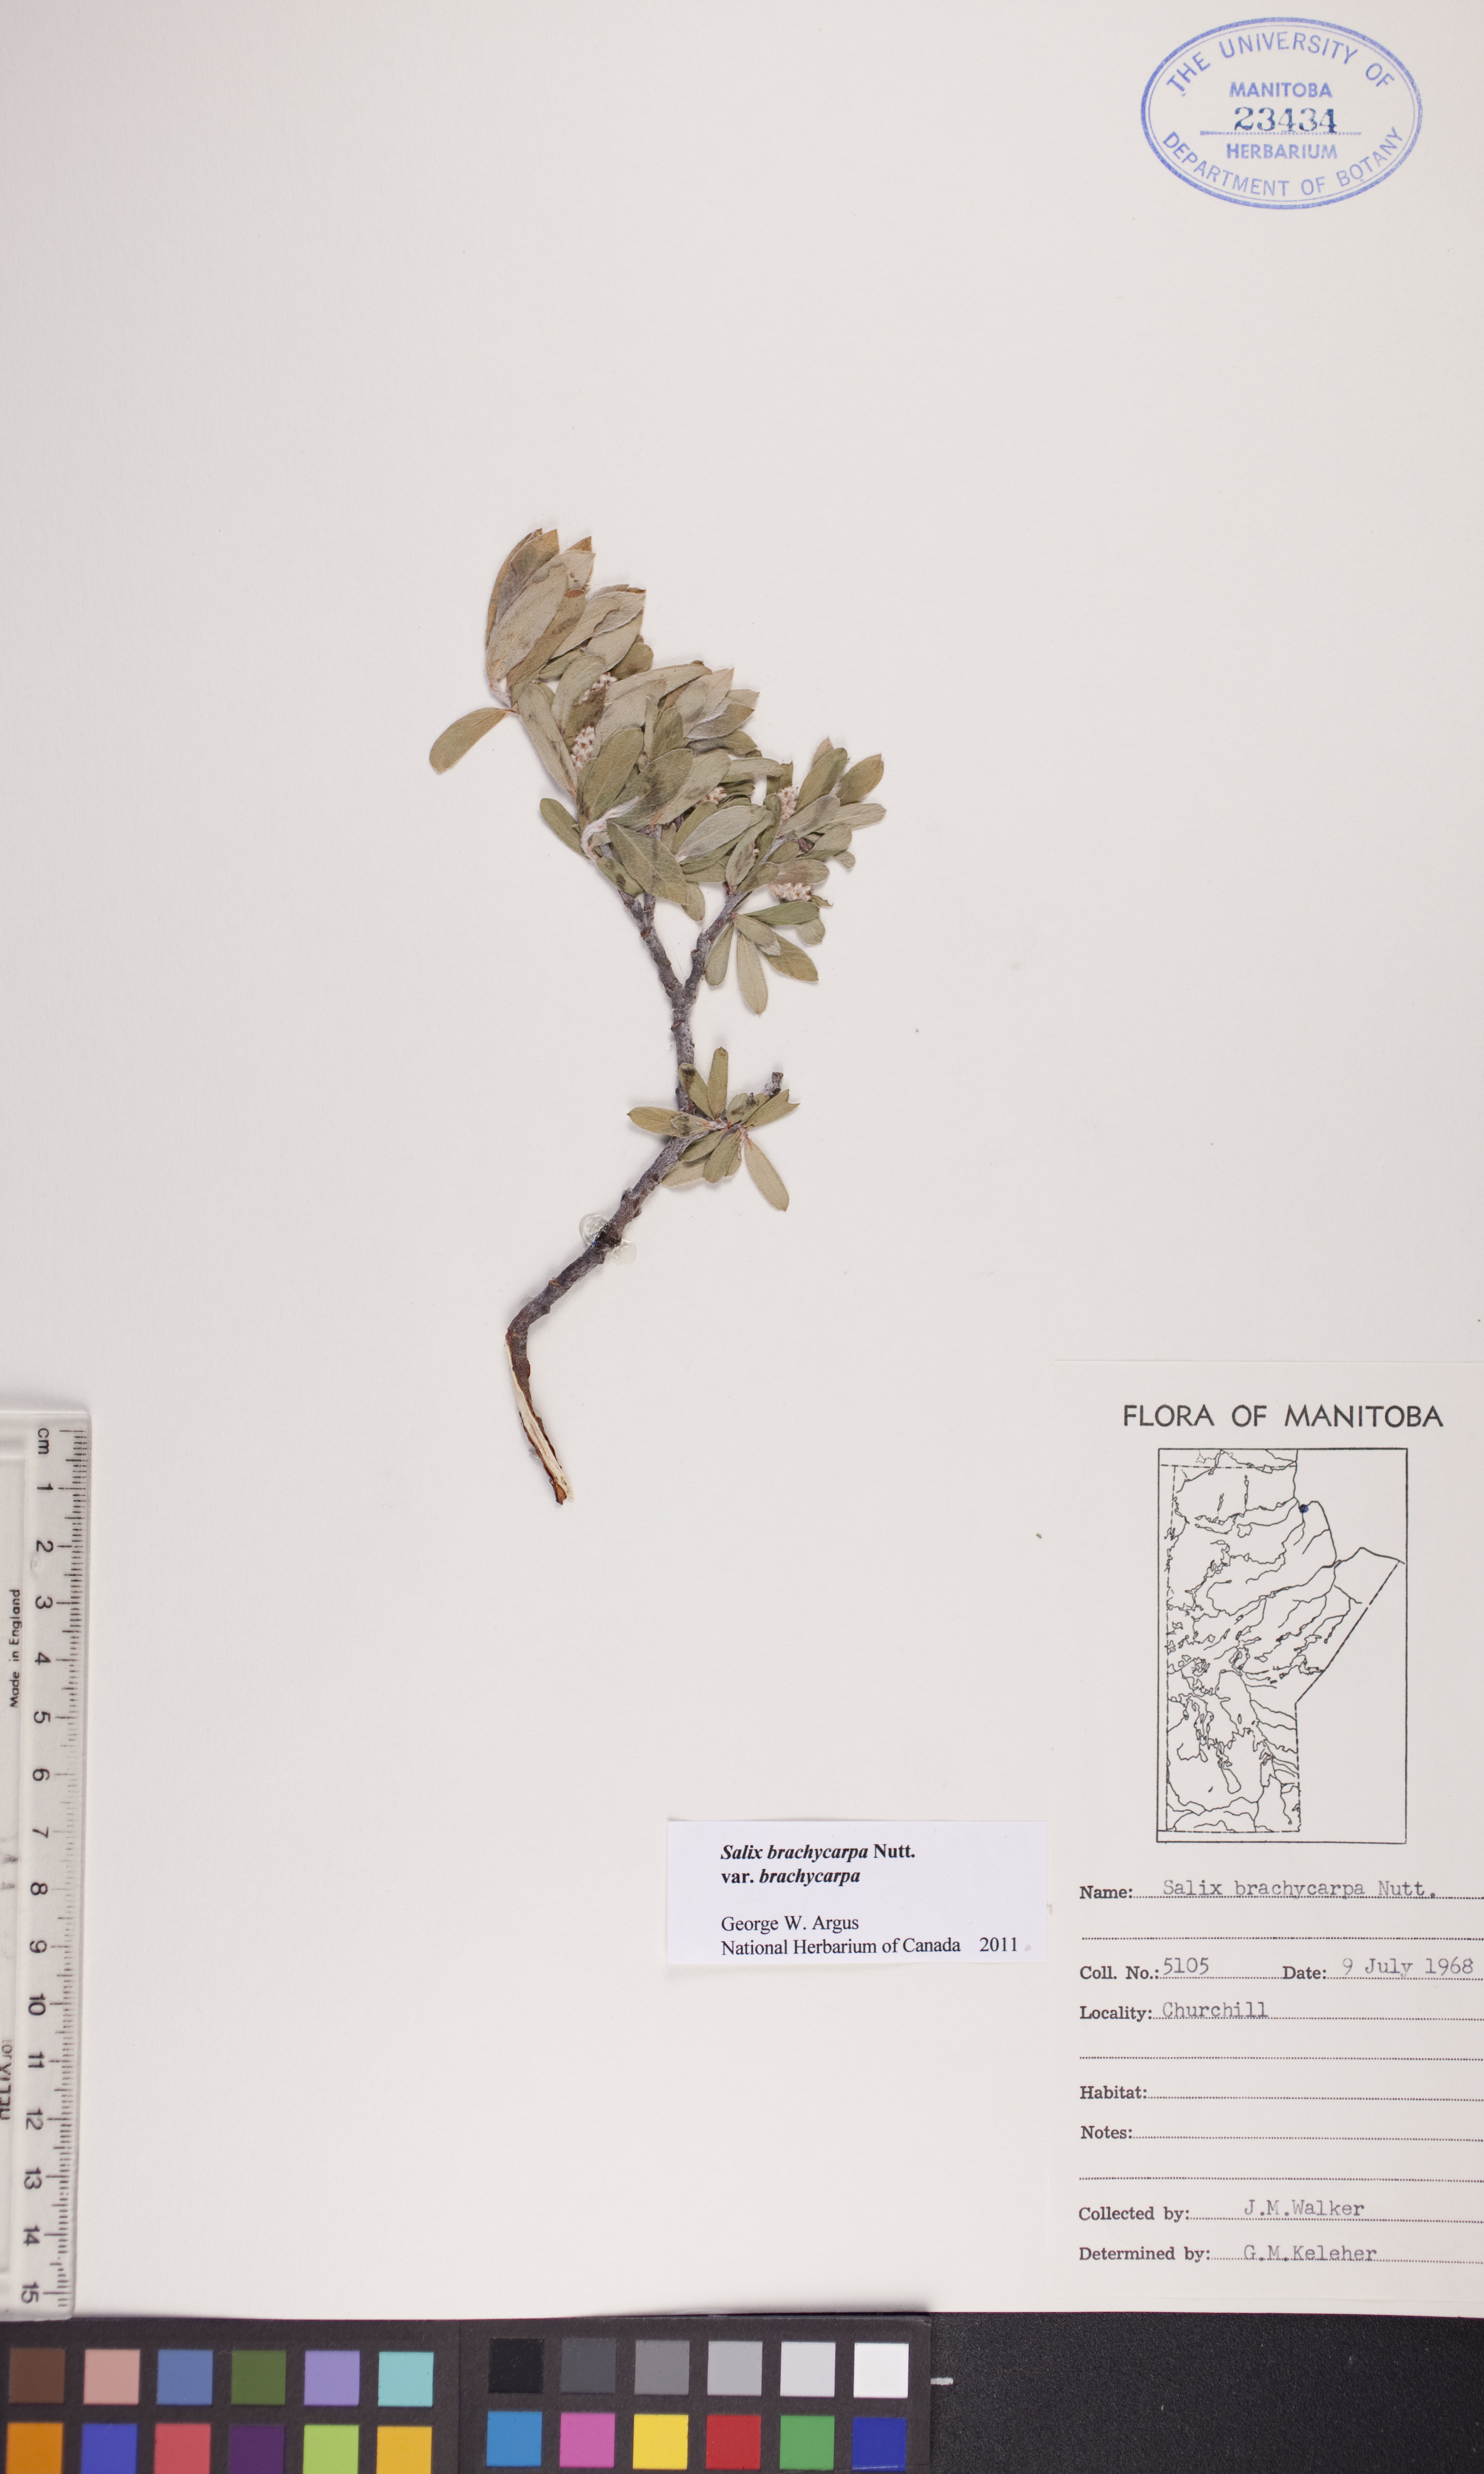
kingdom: Plantae
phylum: Tracheophyta
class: Magnoliopsida
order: Malpighiales
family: Salicaceae
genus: Salix
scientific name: Salix brachycarpa
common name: Barren-ground willow
